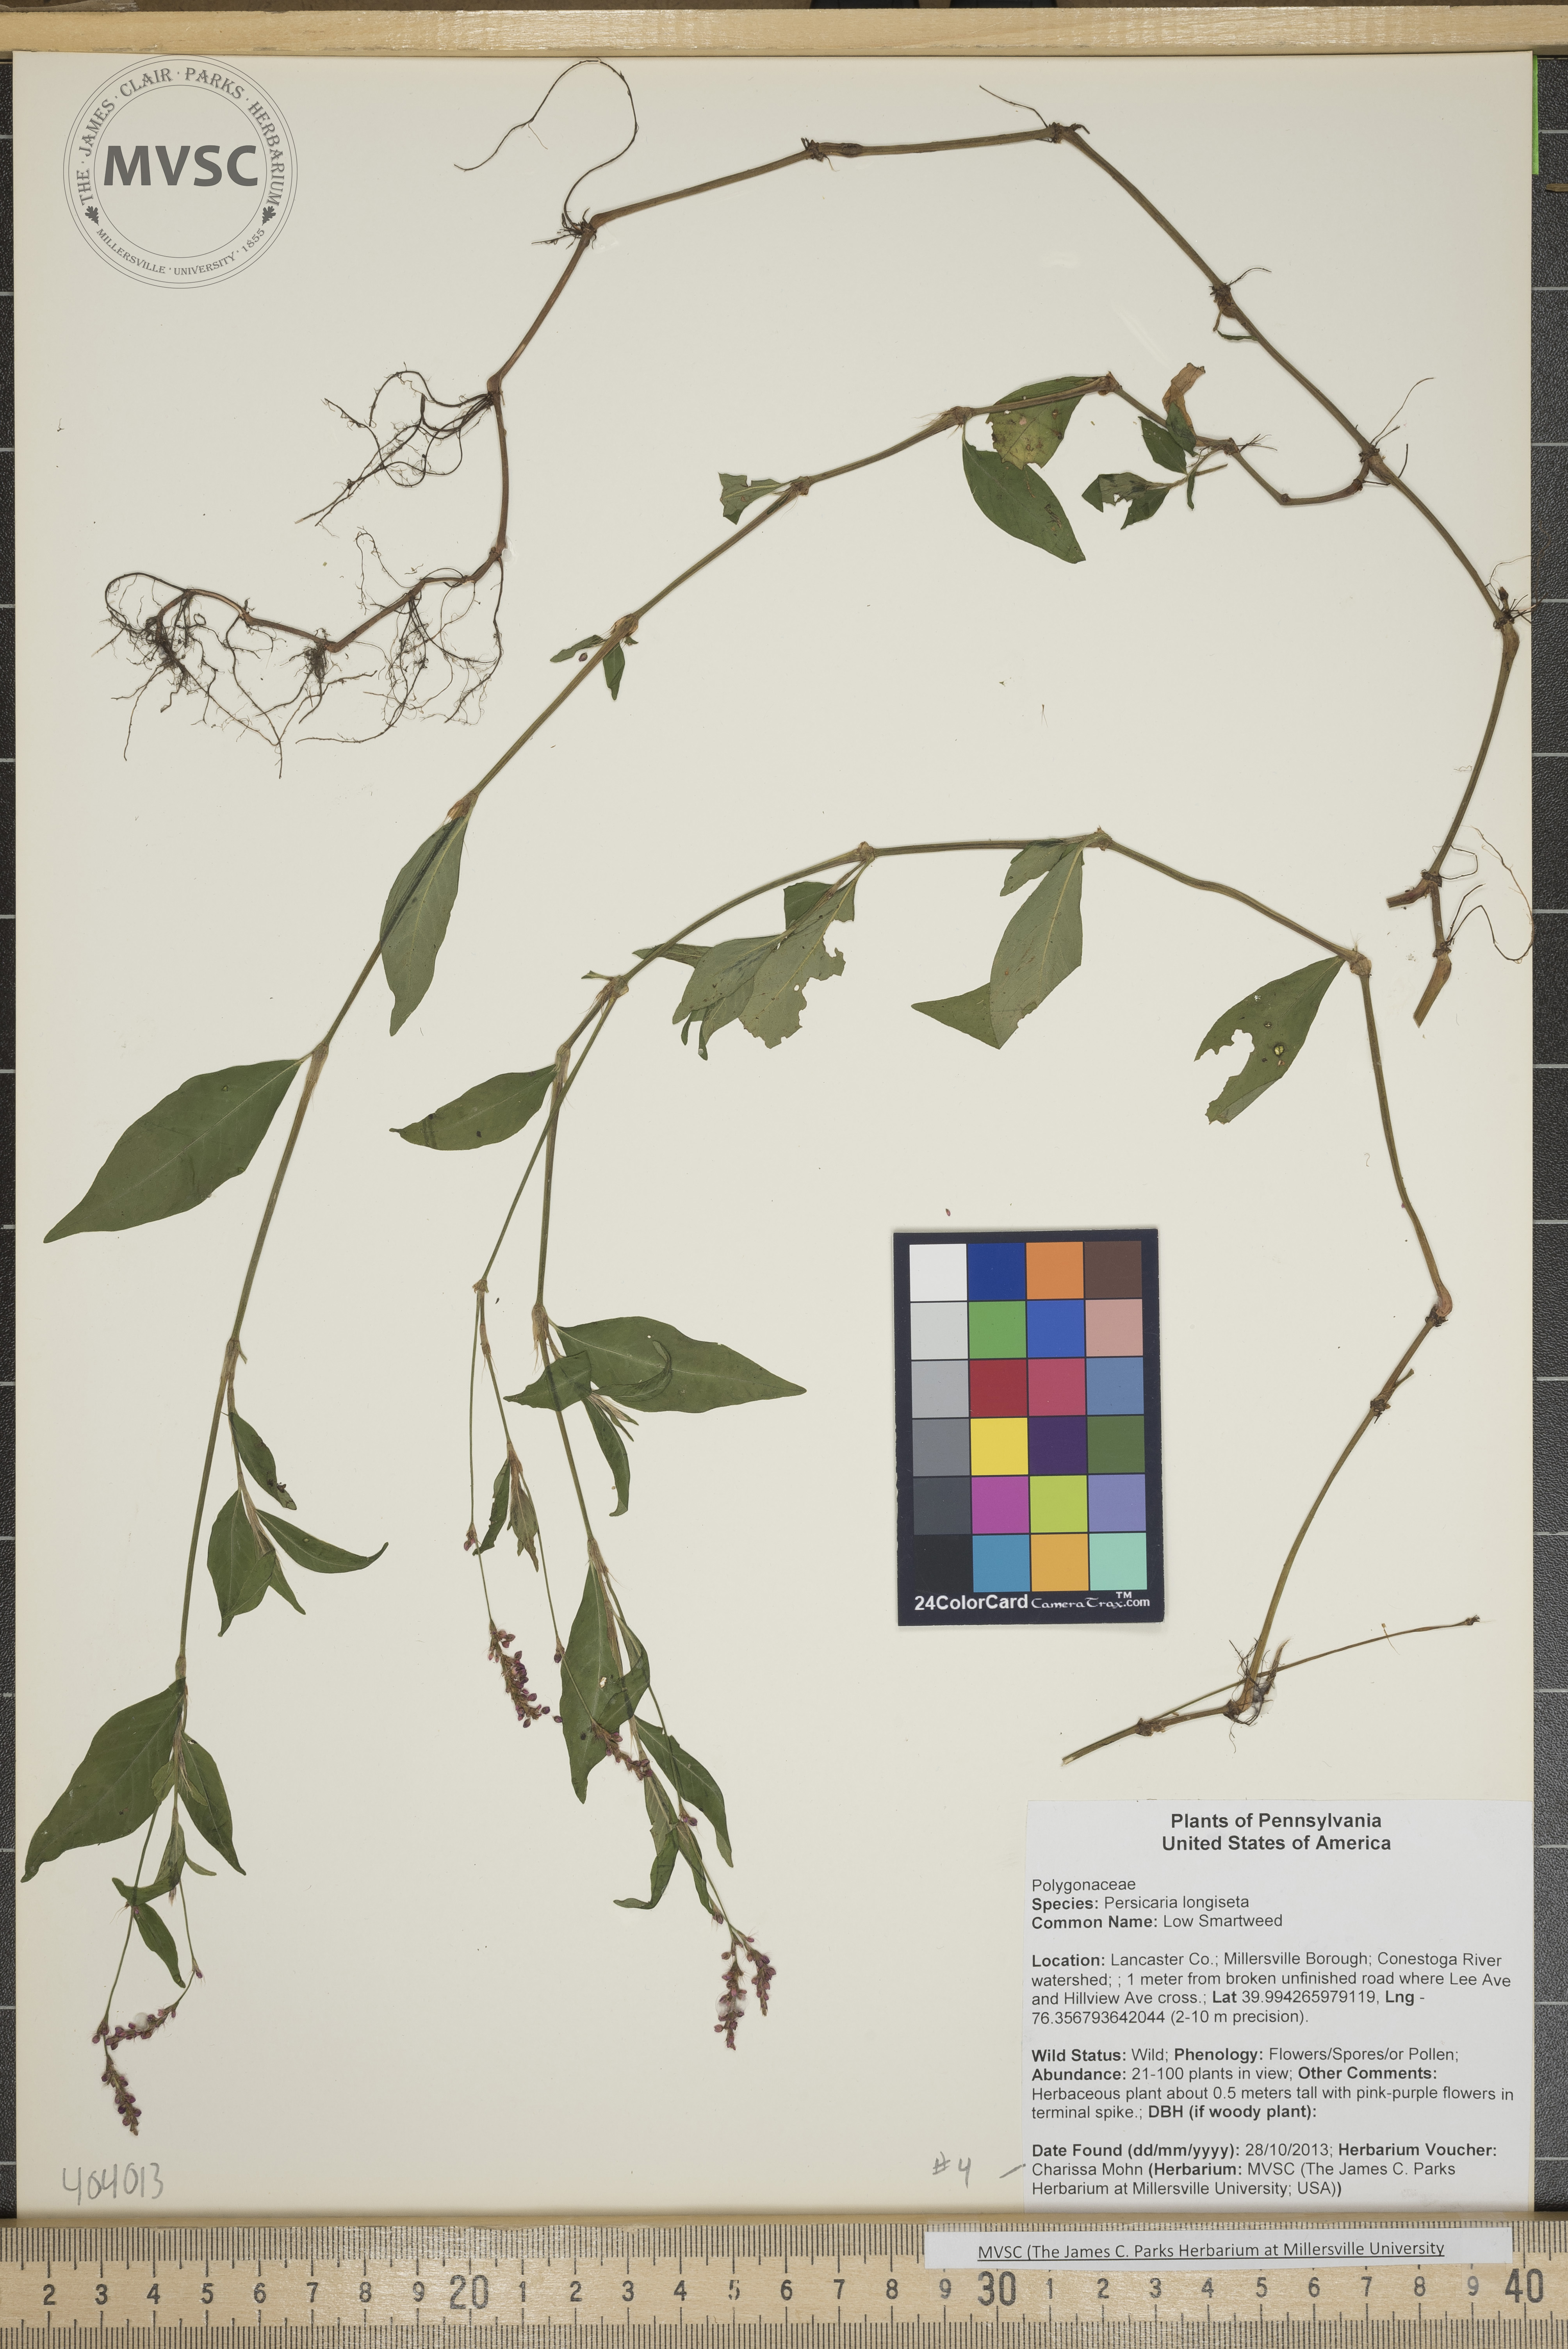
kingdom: Plantae
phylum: Tracheophyta
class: Magnoliopsida
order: Caryophyllales
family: Polygonaceae
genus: Persicaria
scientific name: Persicaria longiseta
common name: Low Smartweed
